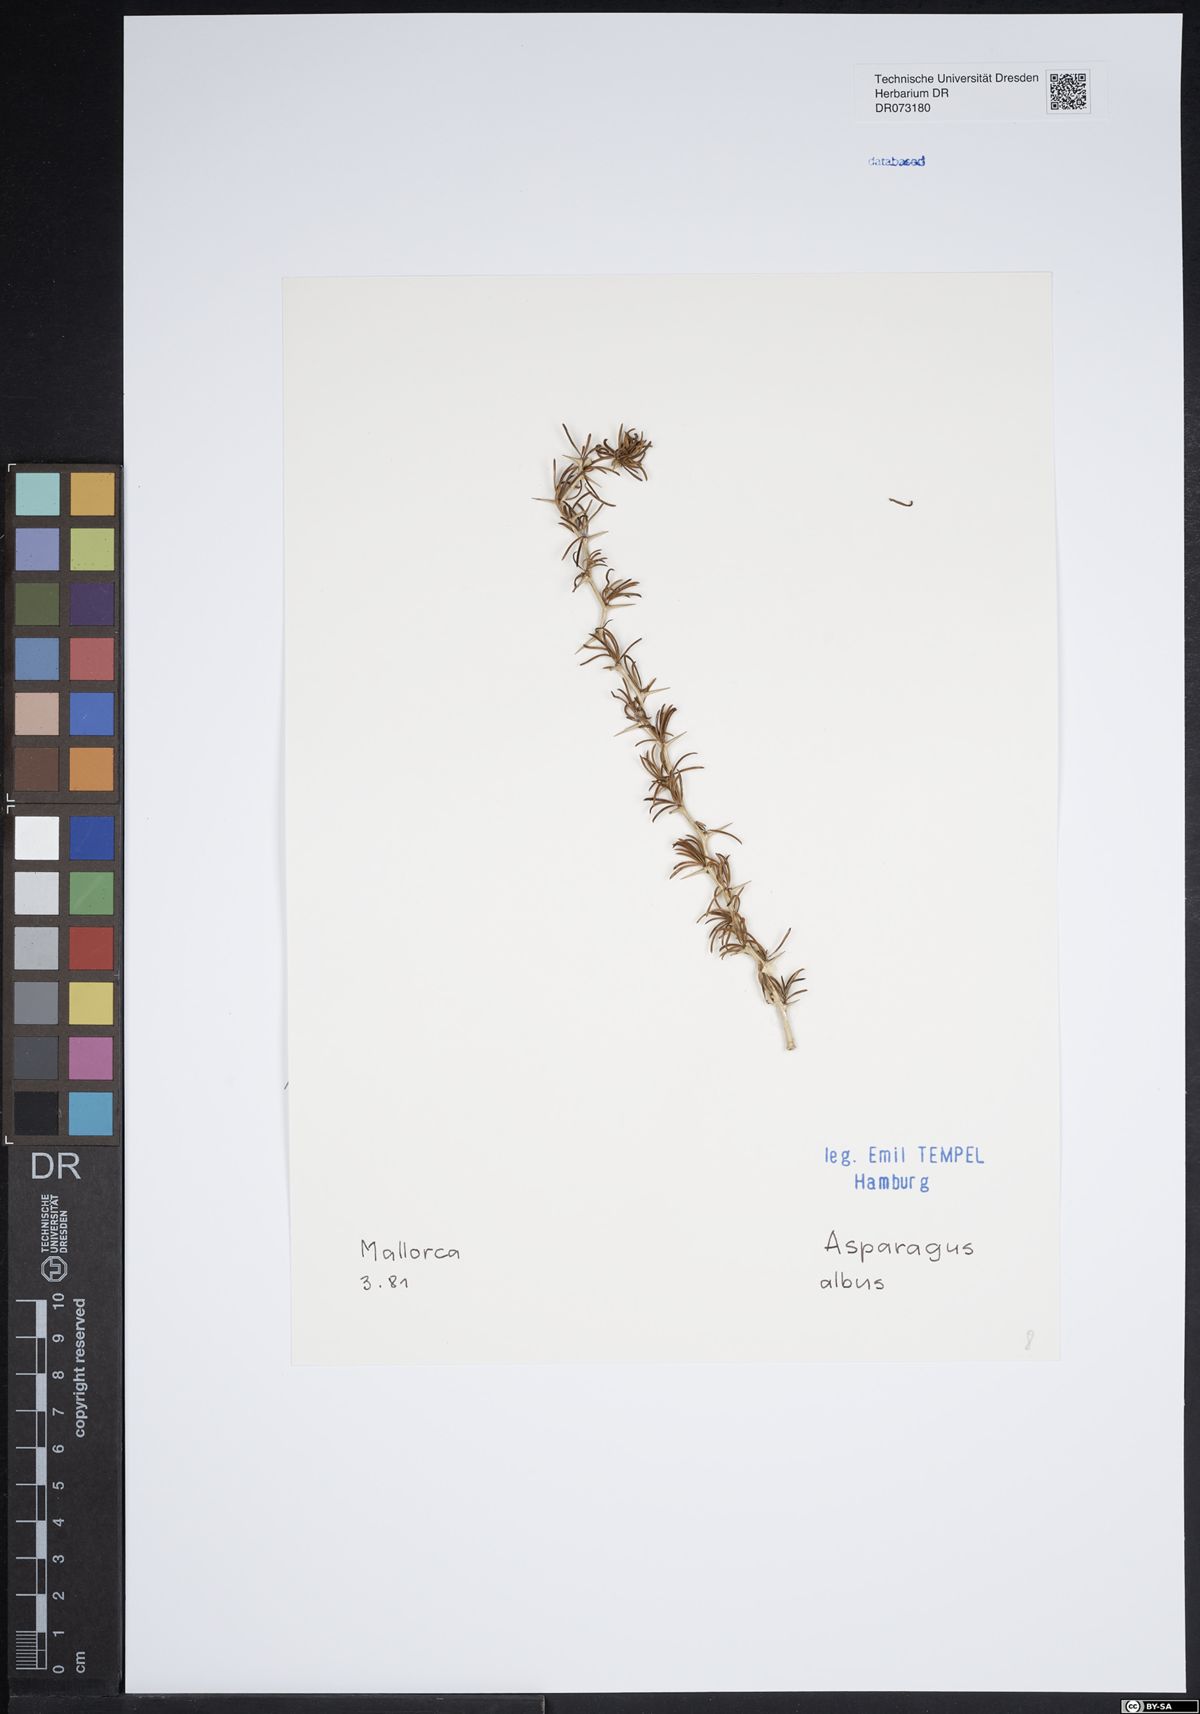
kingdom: Plantae
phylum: Tracheophyta
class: Liliopsida
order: Asparagales
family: Asparagaceae
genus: Asparagus
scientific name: Asparagus albus
